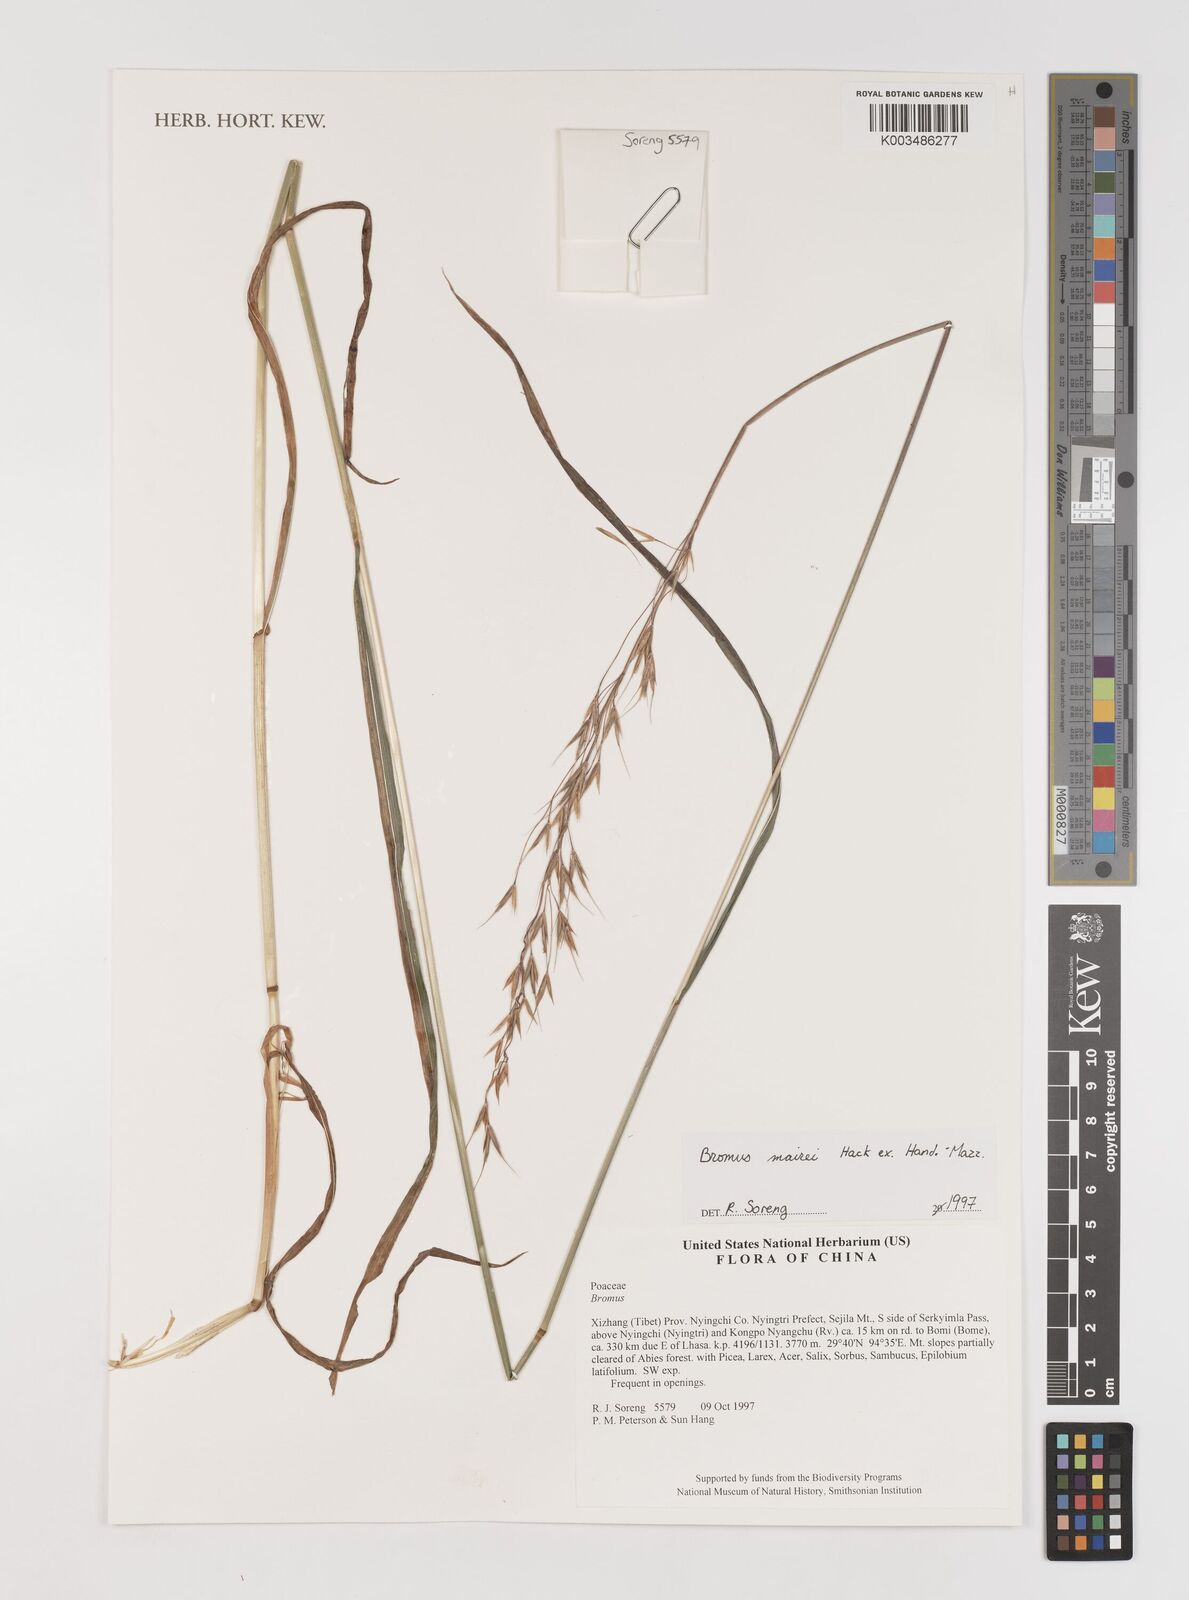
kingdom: Plantae
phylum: Tracheophyta
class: Liliopsida
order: Poales
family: Poaceae
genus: Bromus
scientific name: Bromus mairei
